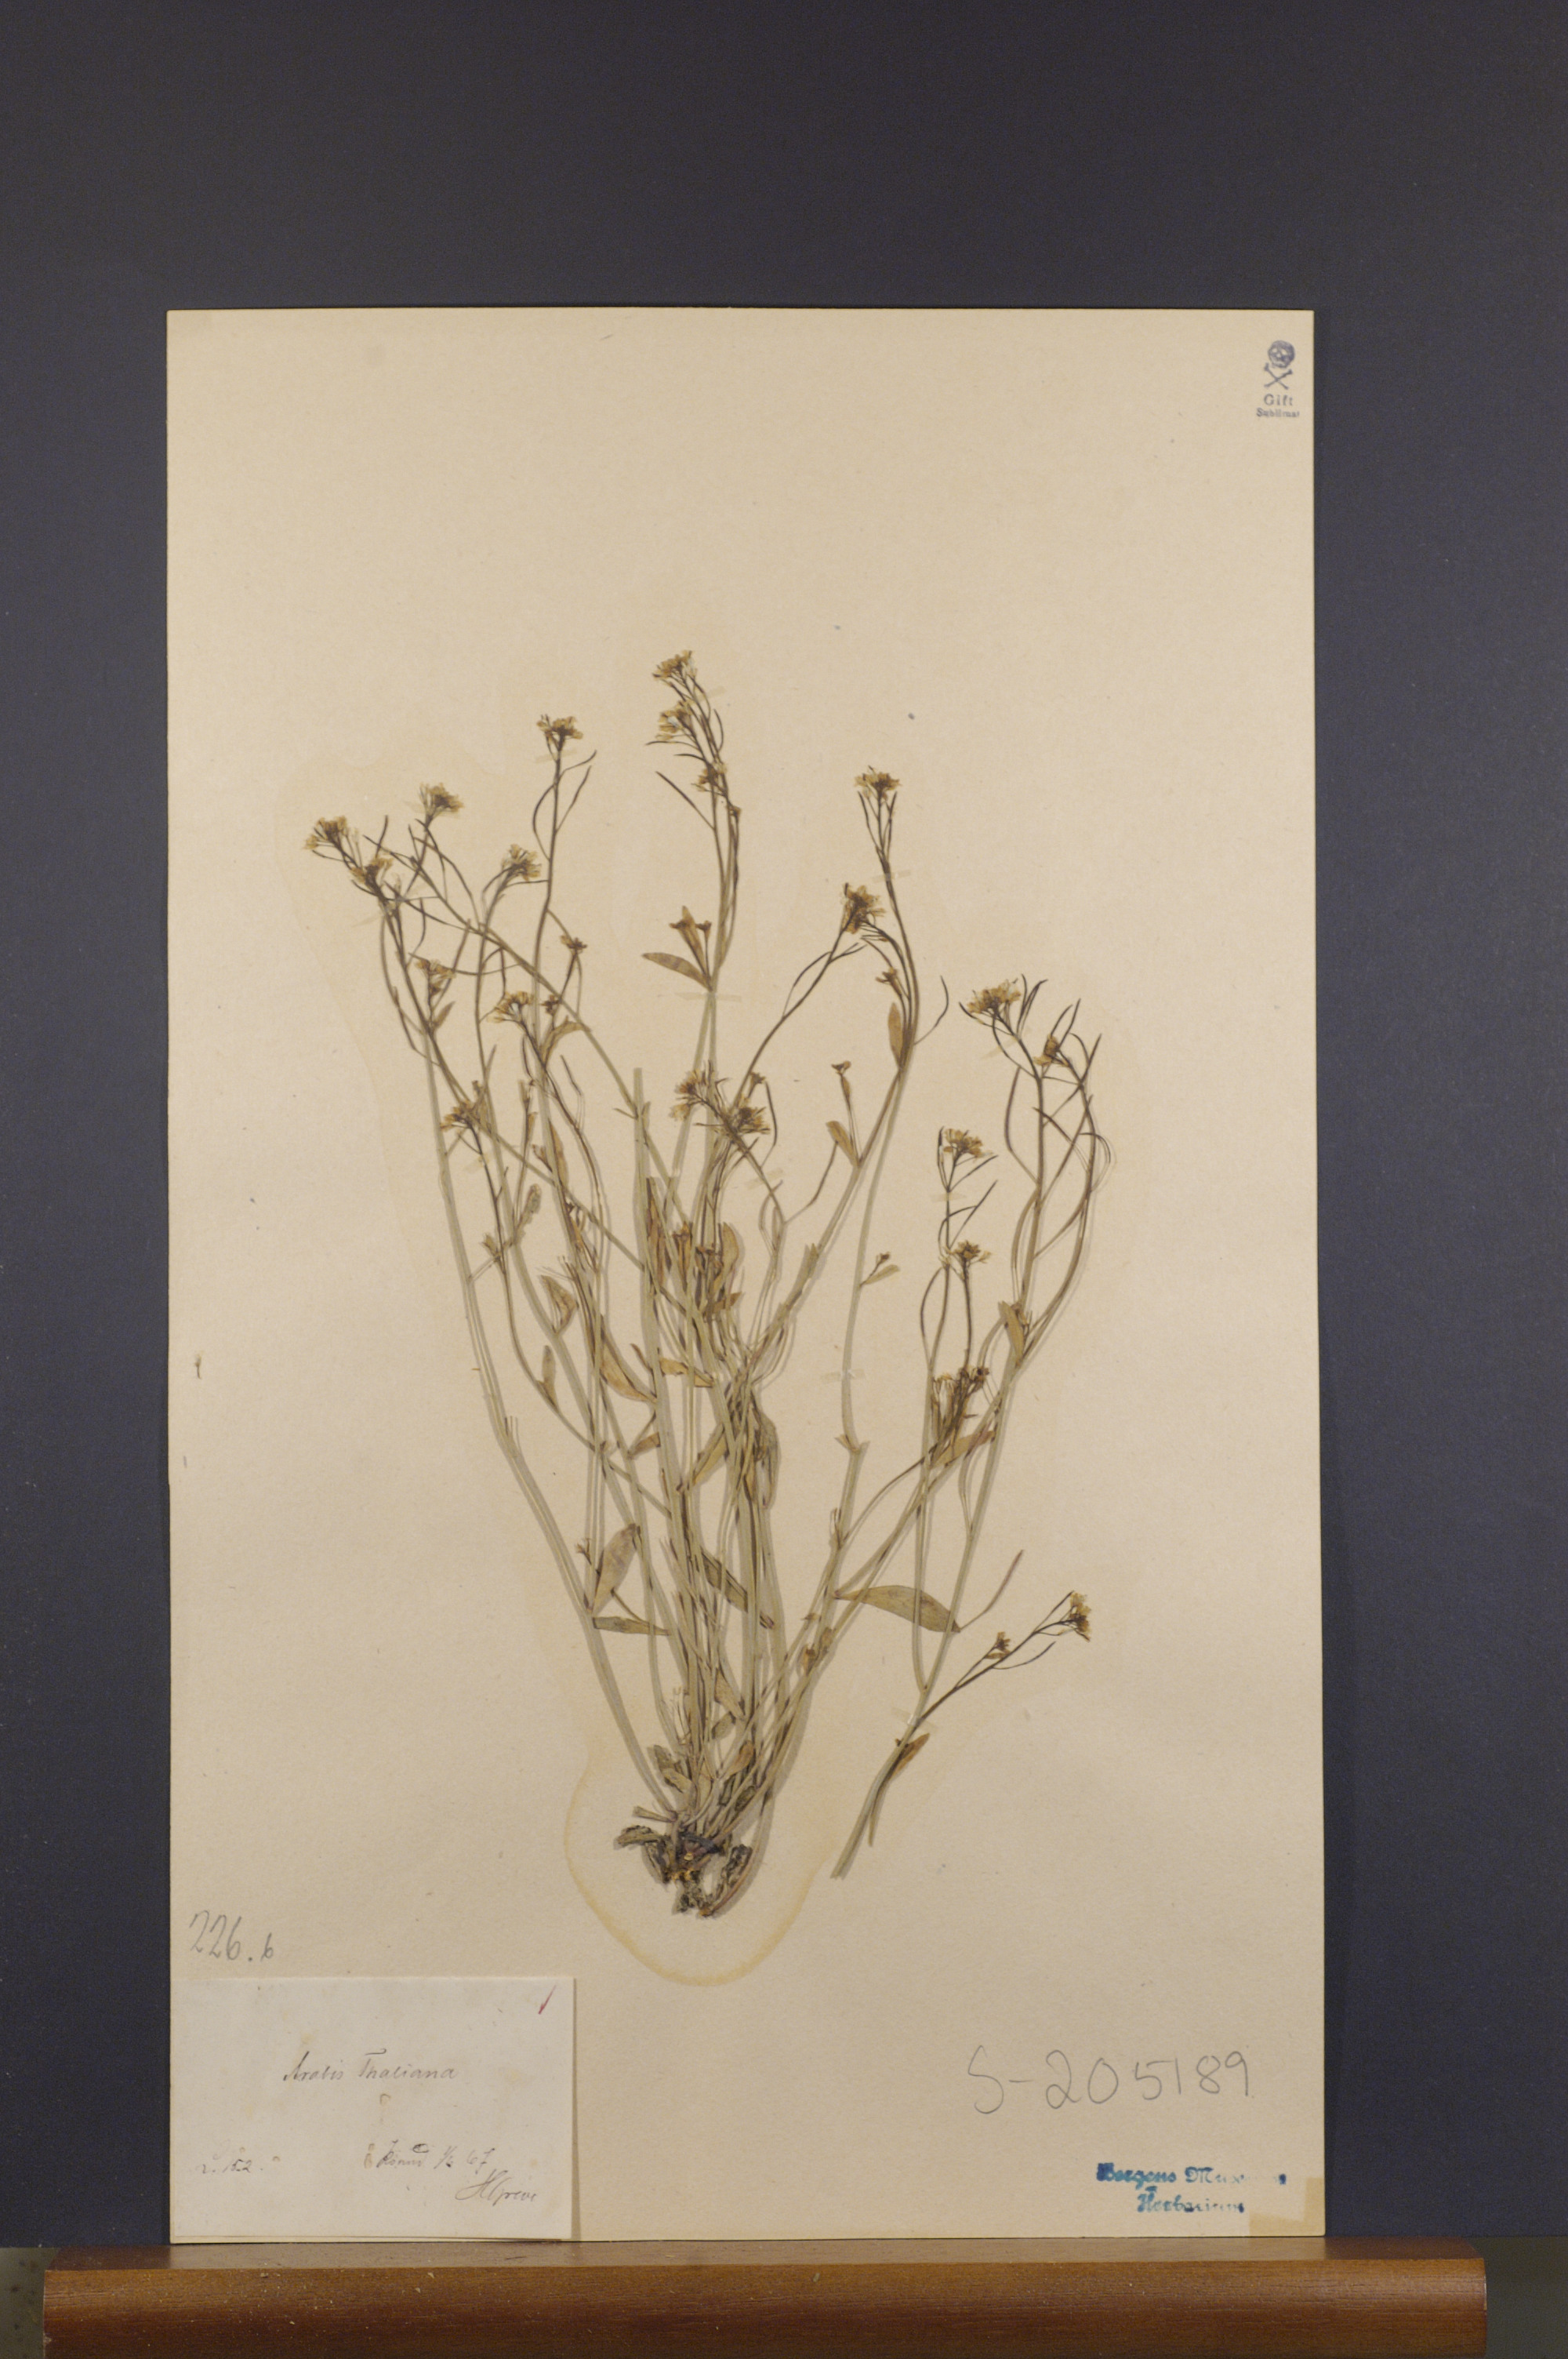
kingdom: Plantae
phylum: Tracheophyta
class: Magnoliopsida
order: Brassicales
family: Brassicaceae
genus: Arabidopsis
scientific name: Arabidopsis thaliana
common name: Thale cress
